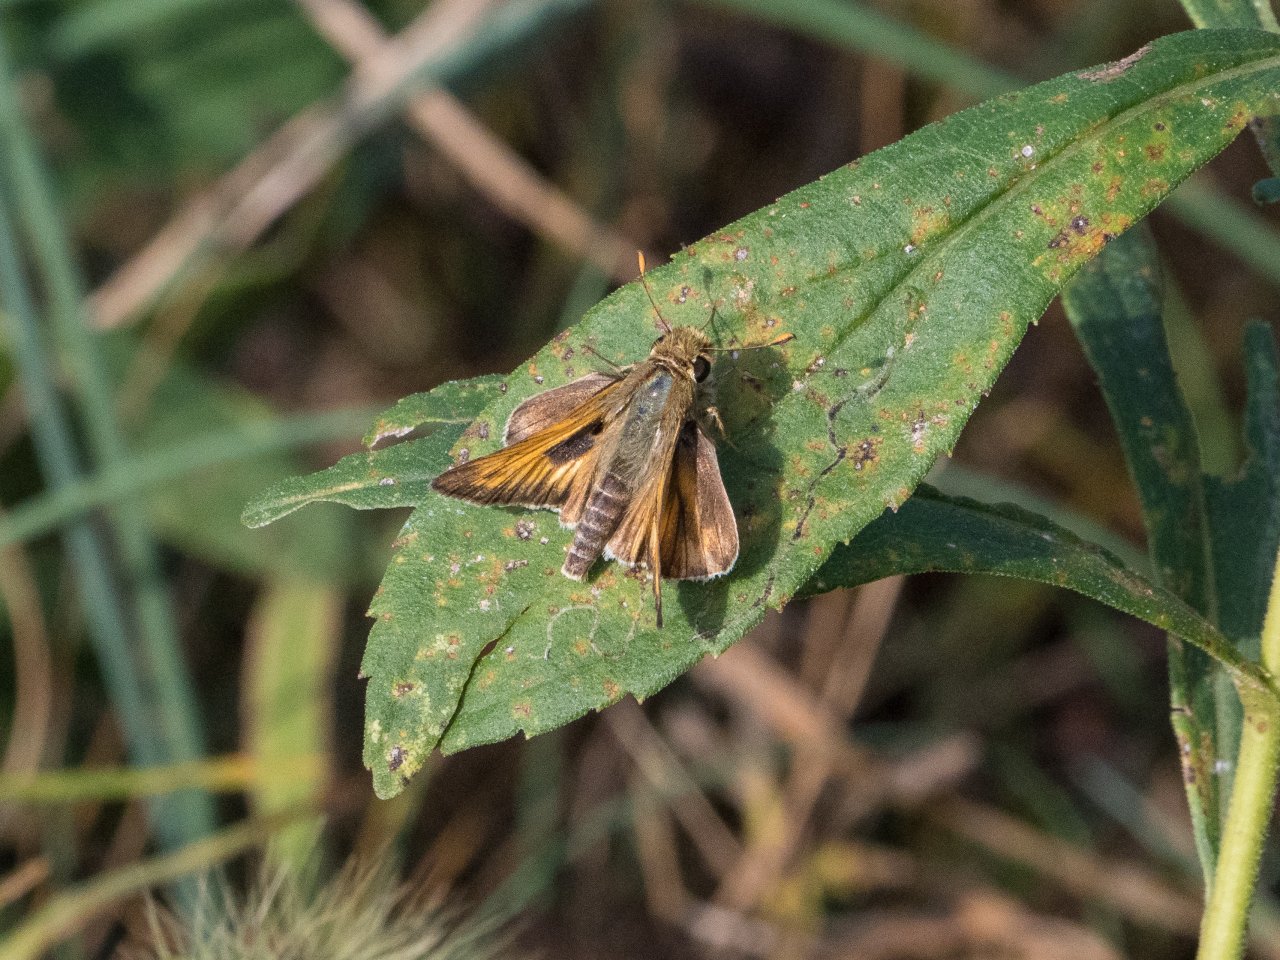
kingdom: Animalia
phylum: Arthropoda
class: Insecta
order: Lepidoptera
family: Hesperiidae
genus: Atalopedes
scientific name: Atalopedes campestris
